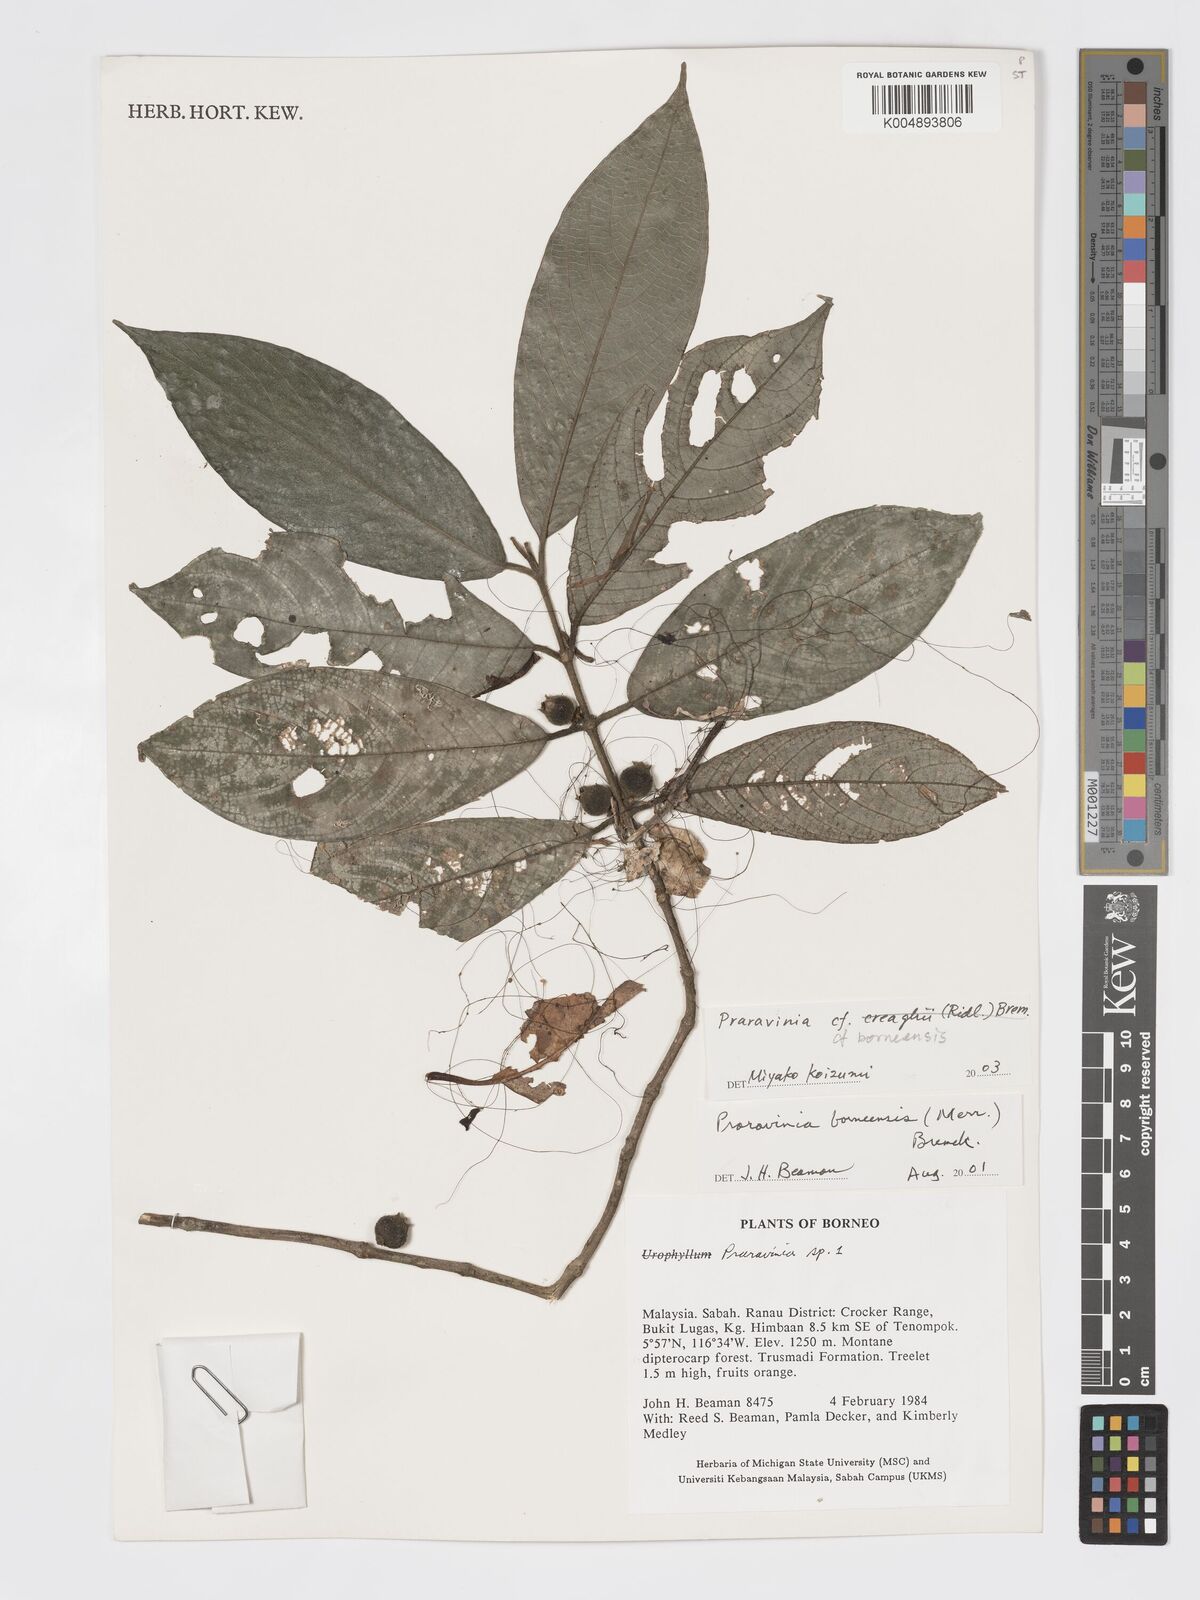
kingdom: Plantae
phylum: Tracheophyta
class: Magnoliopsida
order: Gentianales
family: Rubiaceae
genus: Praravinia
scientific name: Praravinia borneensis
